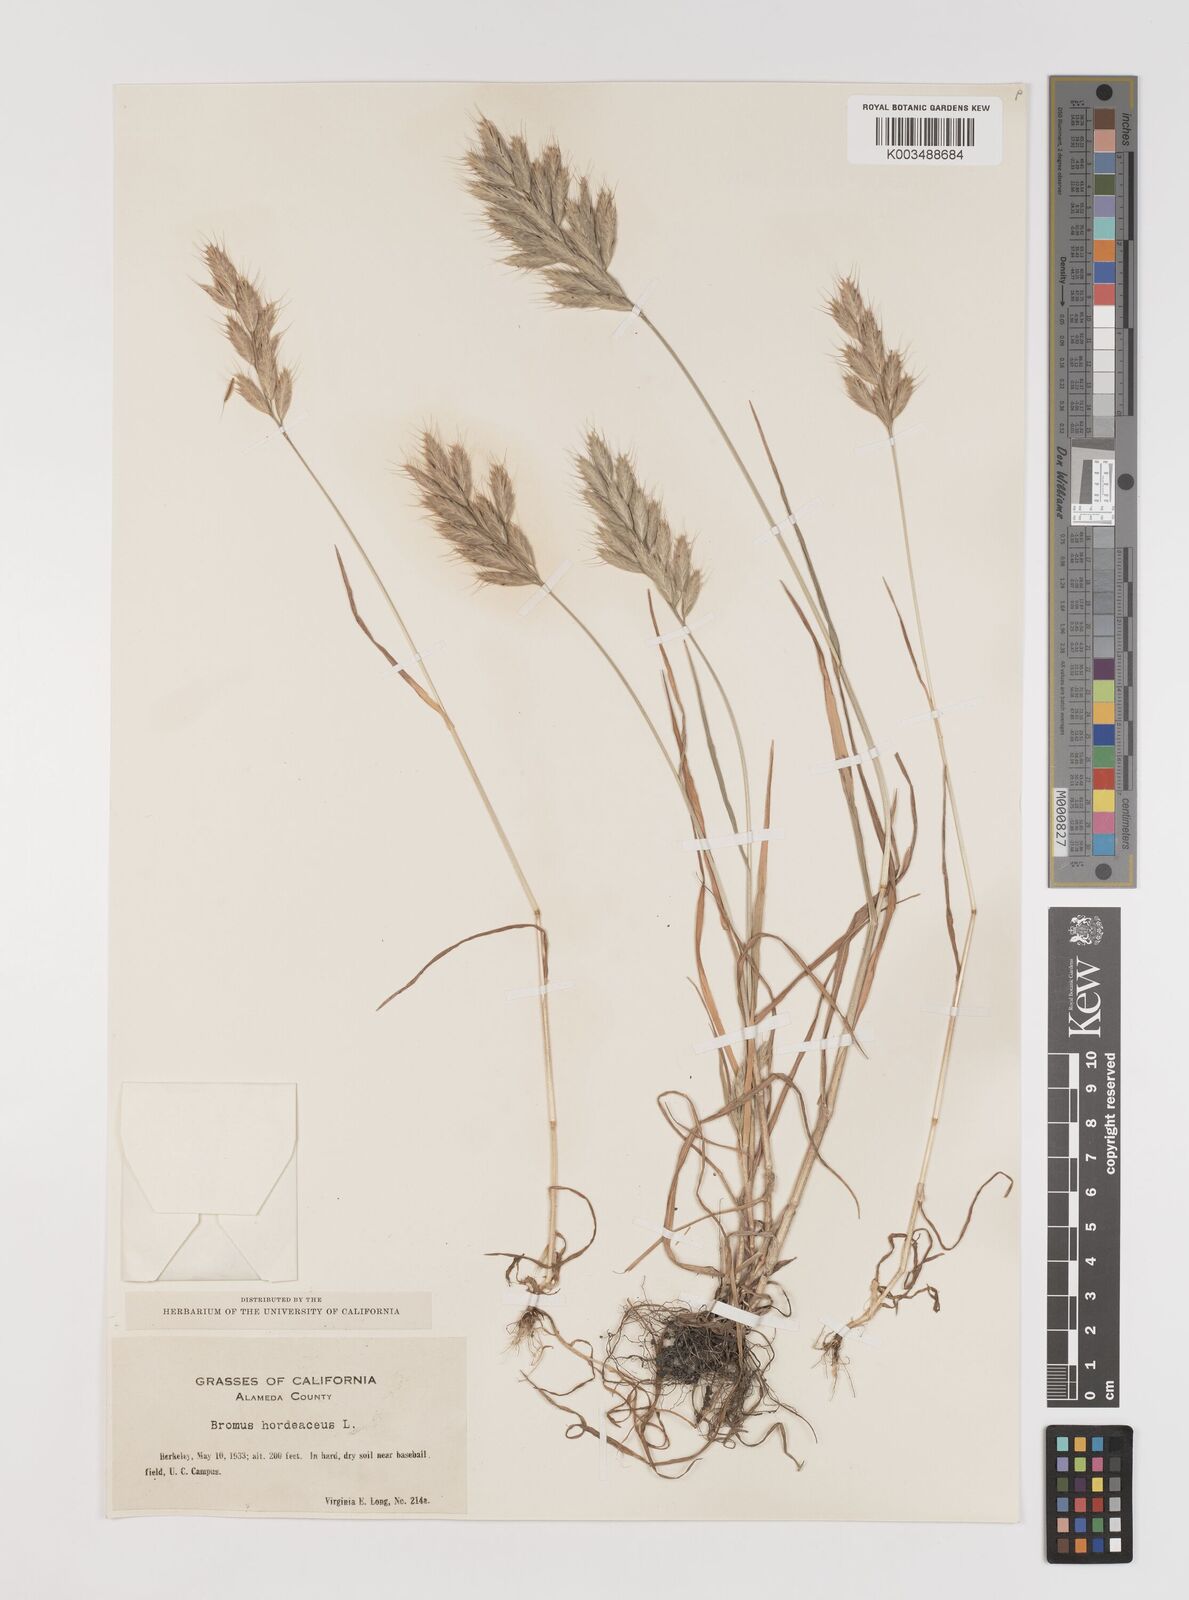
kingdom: Plantae
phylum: Tracheophyta
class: Liliopsida
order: Poales
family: Poaceae
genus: Bromus
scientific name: Bromus hordeaceus
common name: Soft brome
